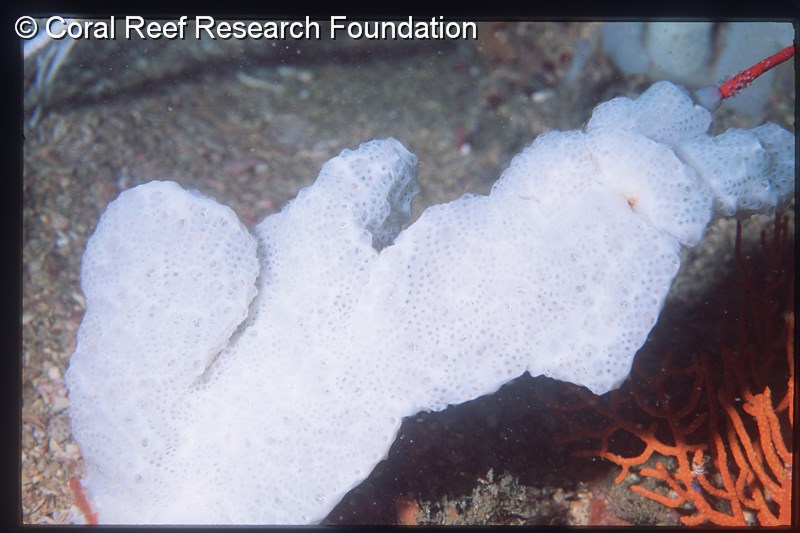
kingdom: Animalia
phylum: Chordata
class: Ascidiacea
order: Aplousobranchia
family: Holozoidae
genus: Distaplia
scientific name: Distaplia skoogi
